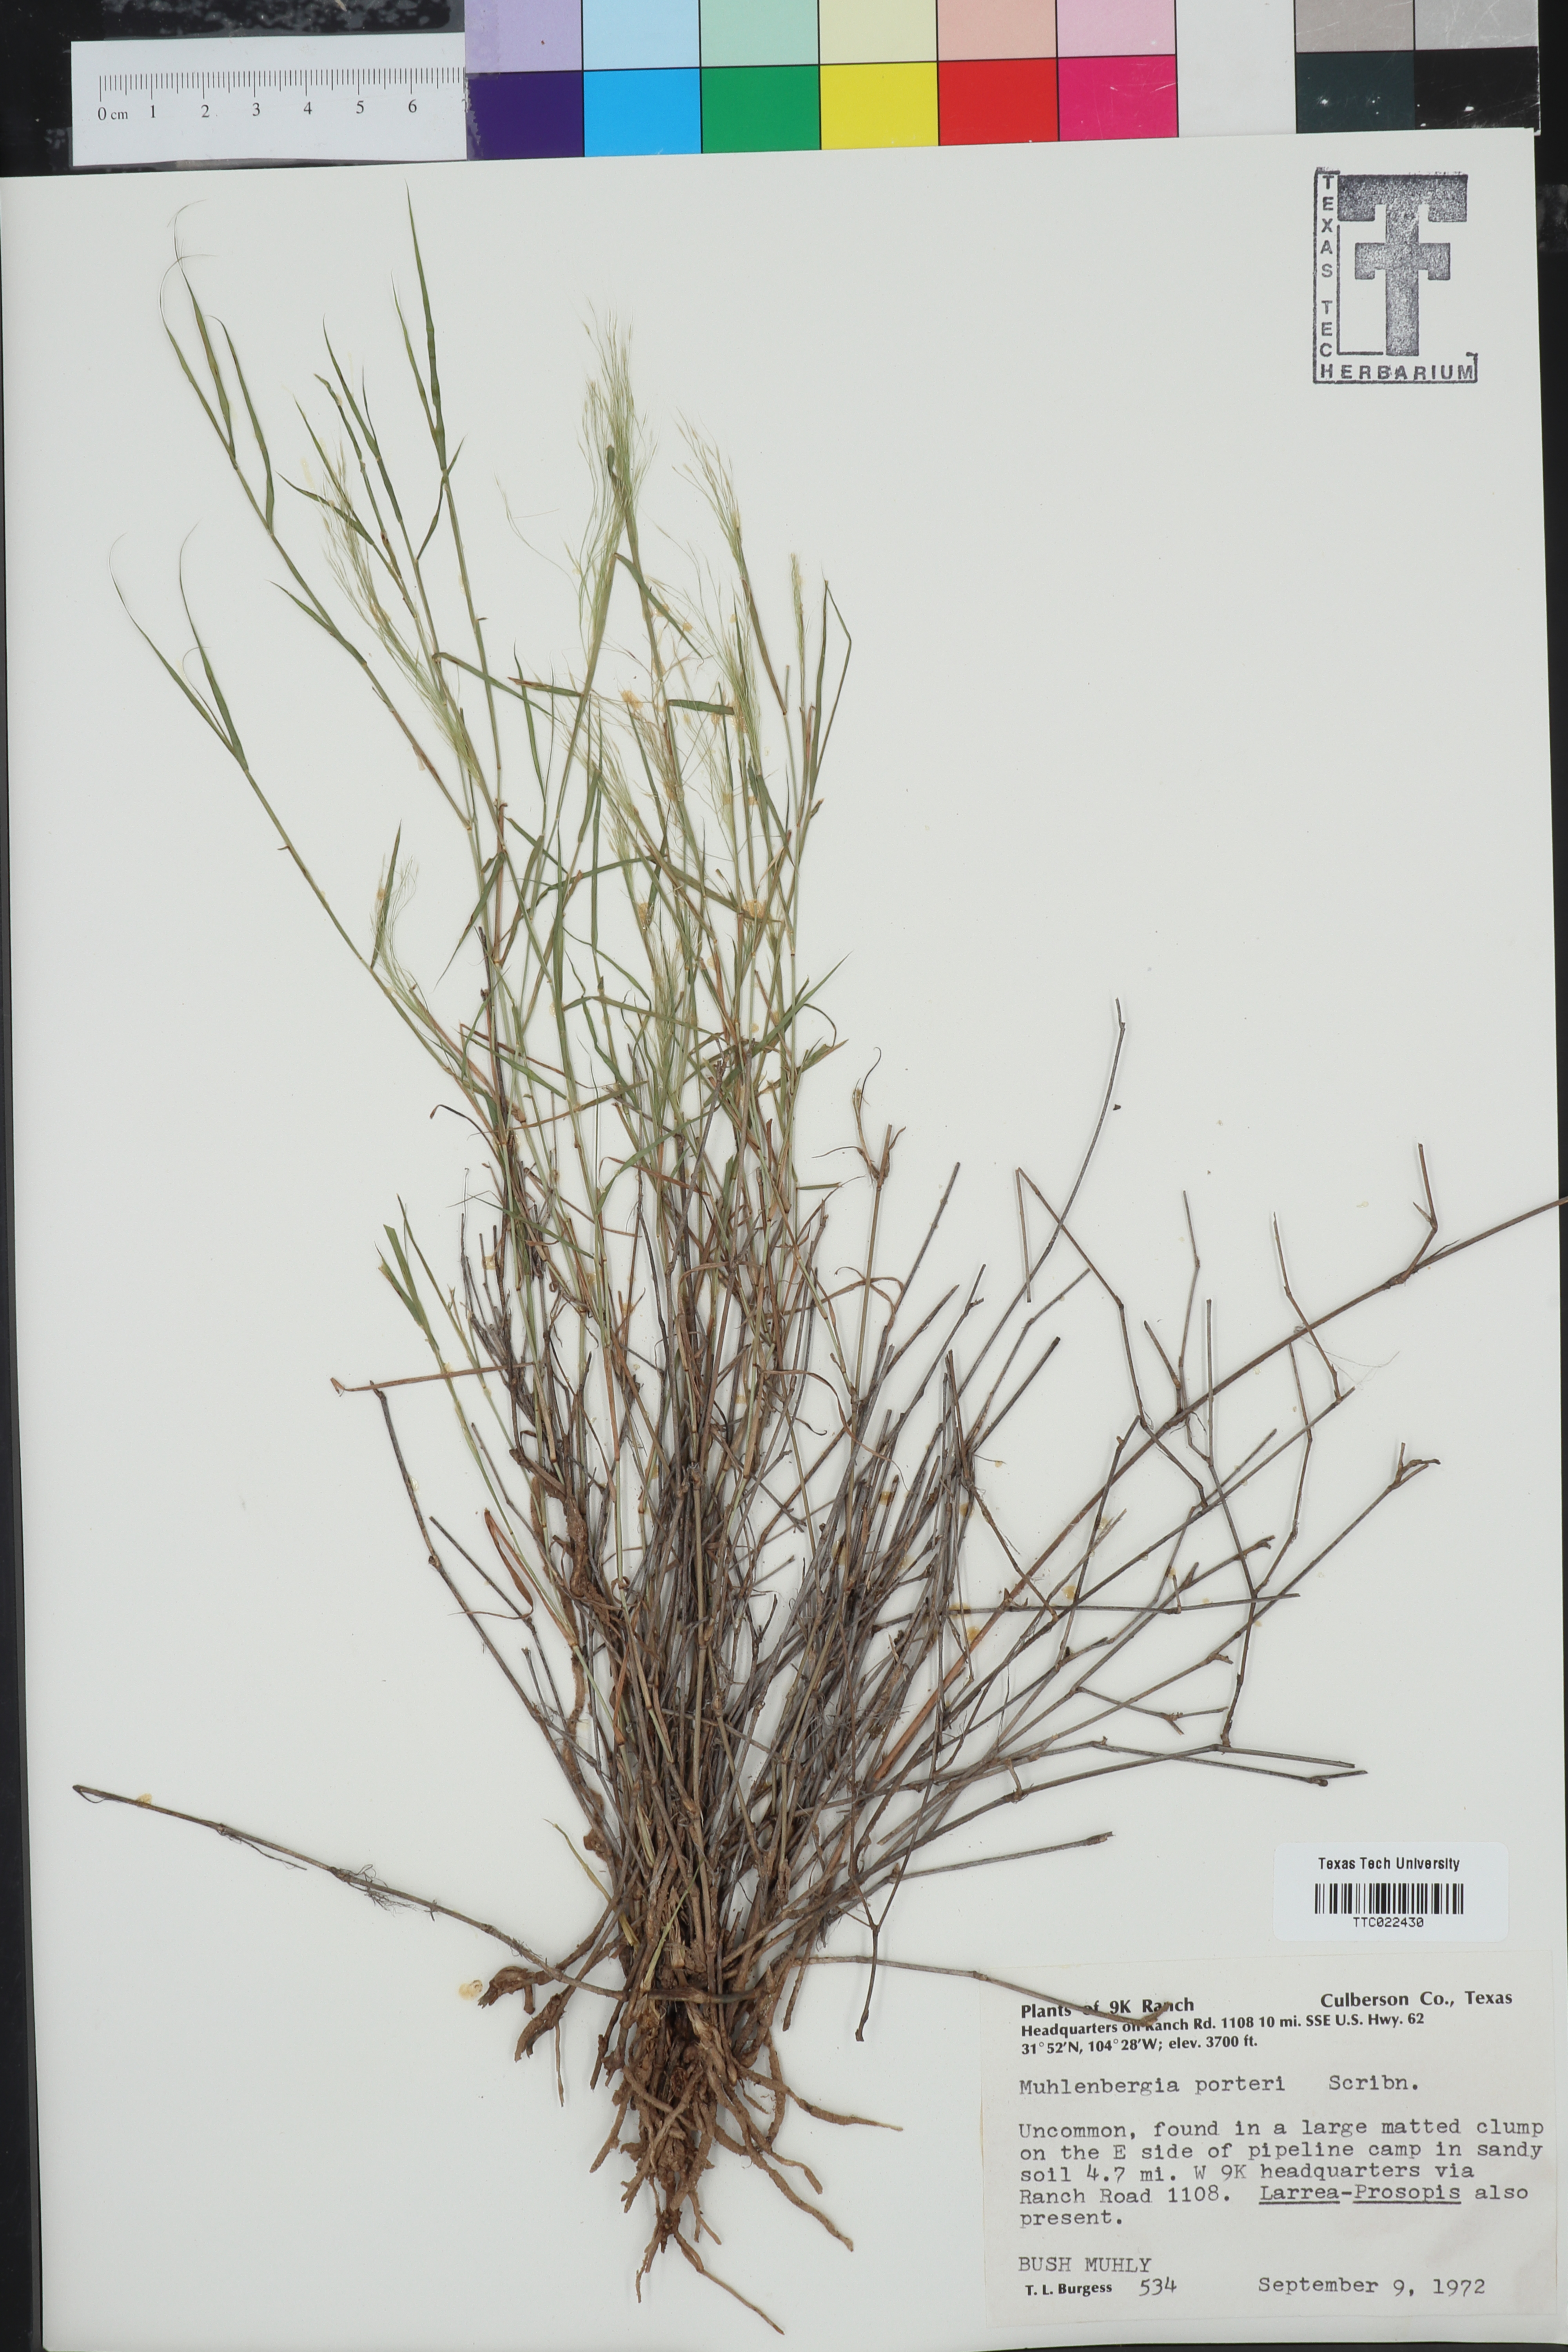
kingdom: Plantae
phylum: Tracheophyta
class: Liliopsida
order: Poales
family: Poaceae
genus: Muhlenbergia
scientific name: Muhlenbergia porteri
